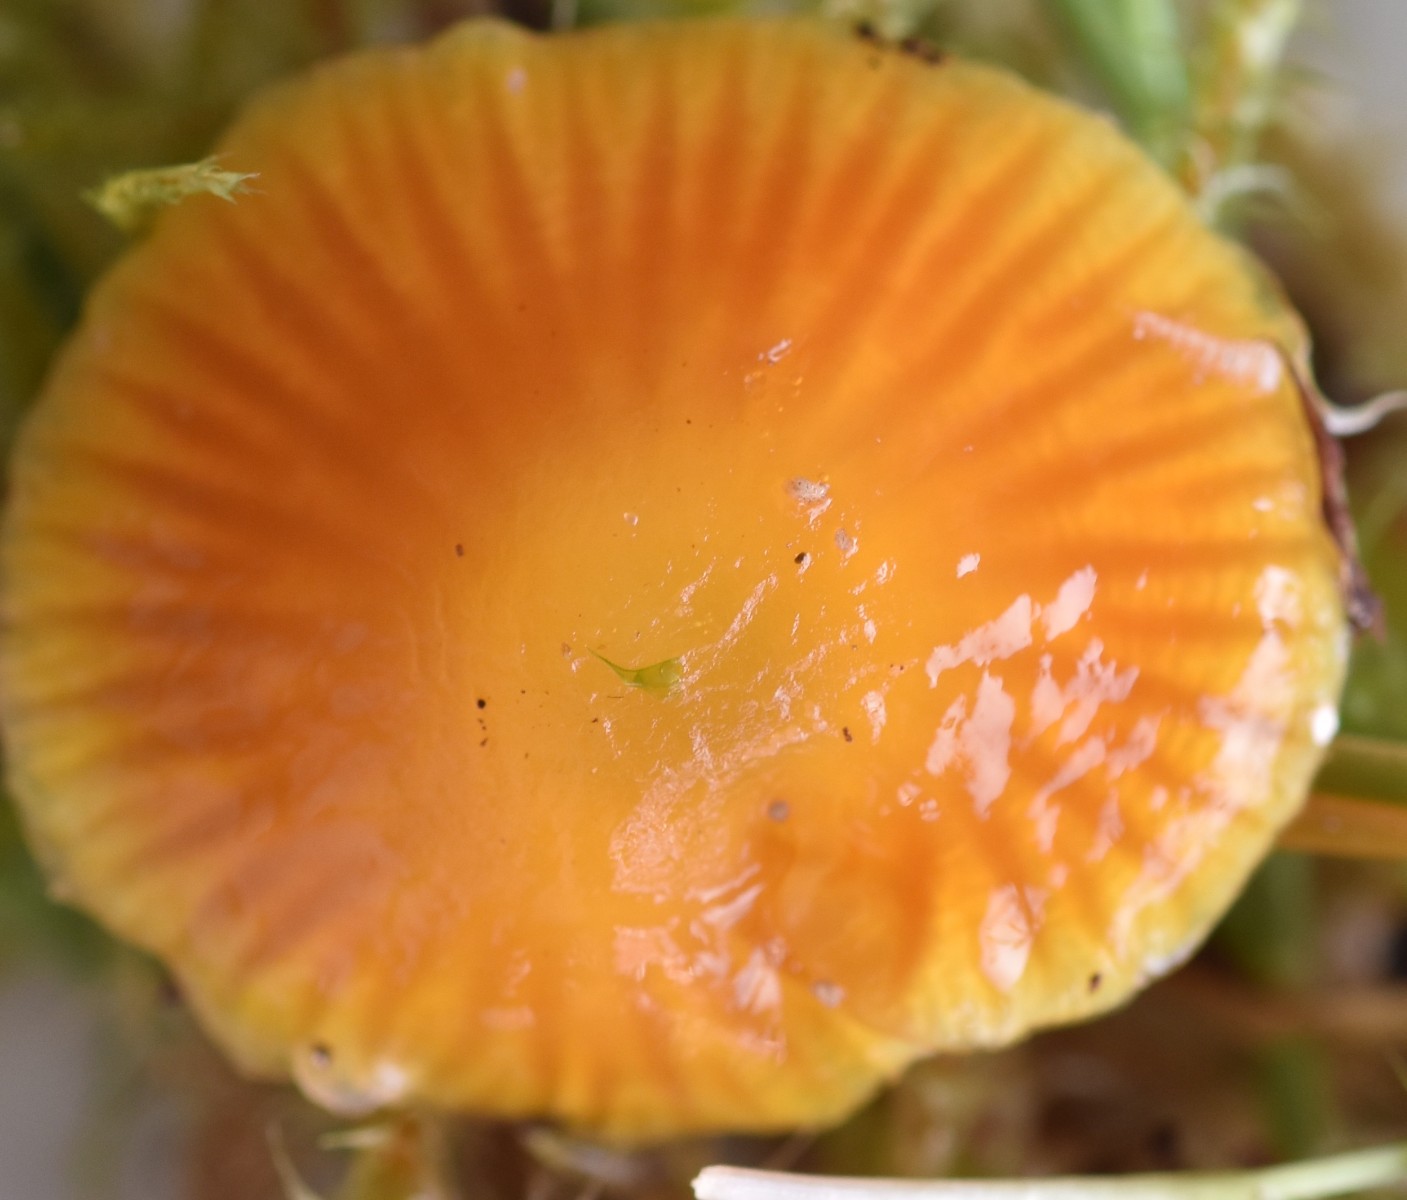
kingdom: Fungi
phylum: Basidiomycota
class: Agaricomycetes
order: Agaricales
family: Hygrophoraceae
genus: Hygrocybe
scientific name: Hygrocybe glutinipes
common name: slimstokket vokshat
